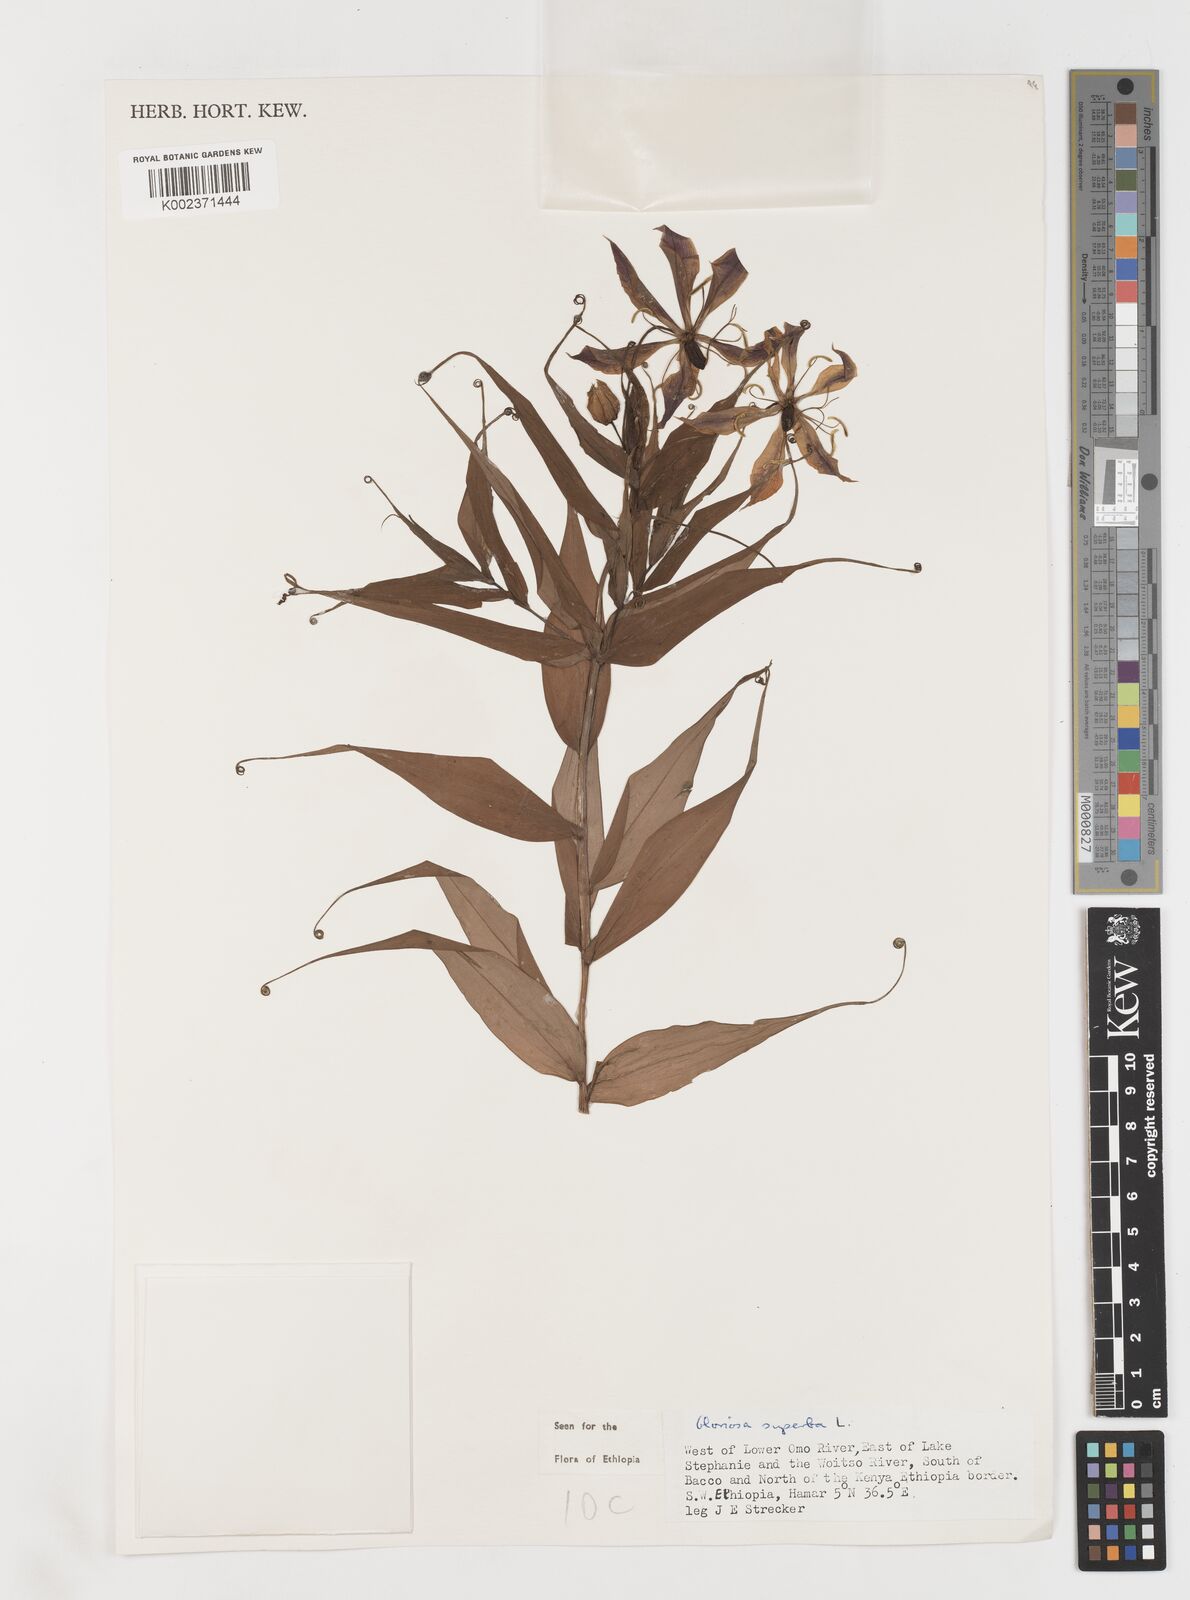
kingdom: Plantae
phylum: Tracheophyta
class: Liliopsida
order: Liliales
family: Colchicaceae
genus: Gloriosa
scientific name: Gloriosa simplex
